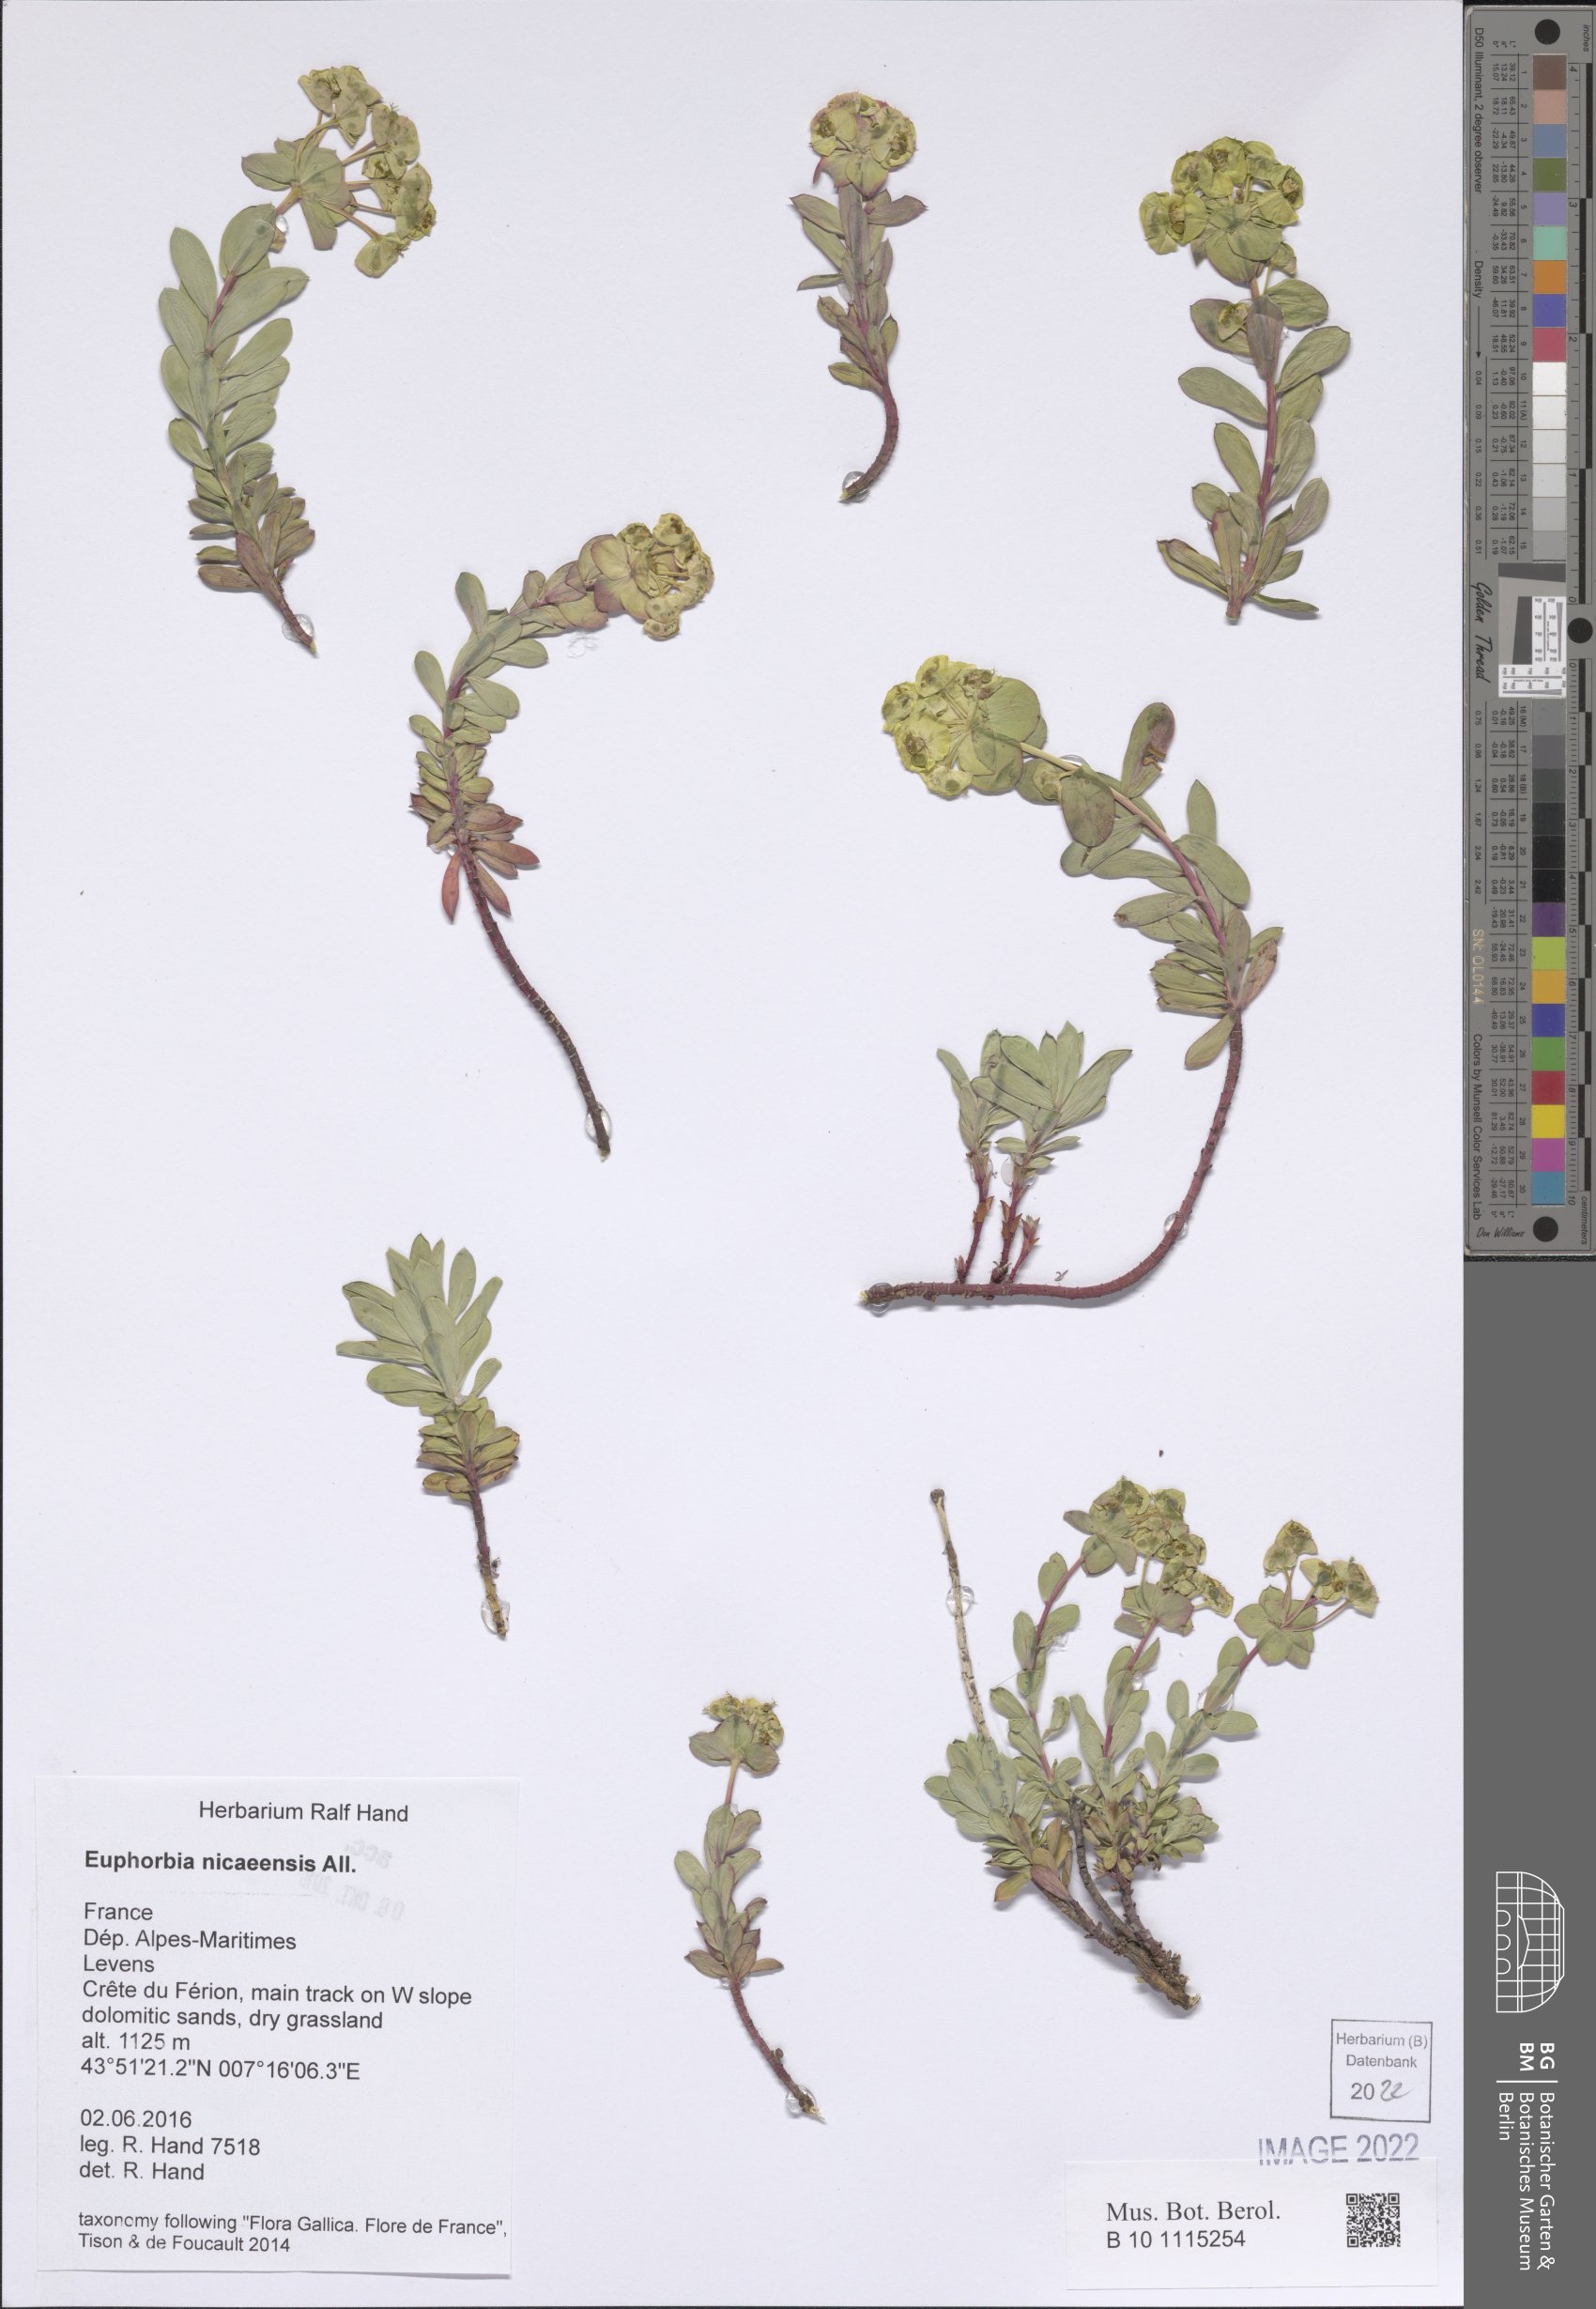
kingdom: Plantae
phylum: Tracheophyta
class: Magnoliopsida
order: Malpighiales
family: Euphorbiaceae
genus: Euphorbia
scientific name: Euphorbia nicaeensis
